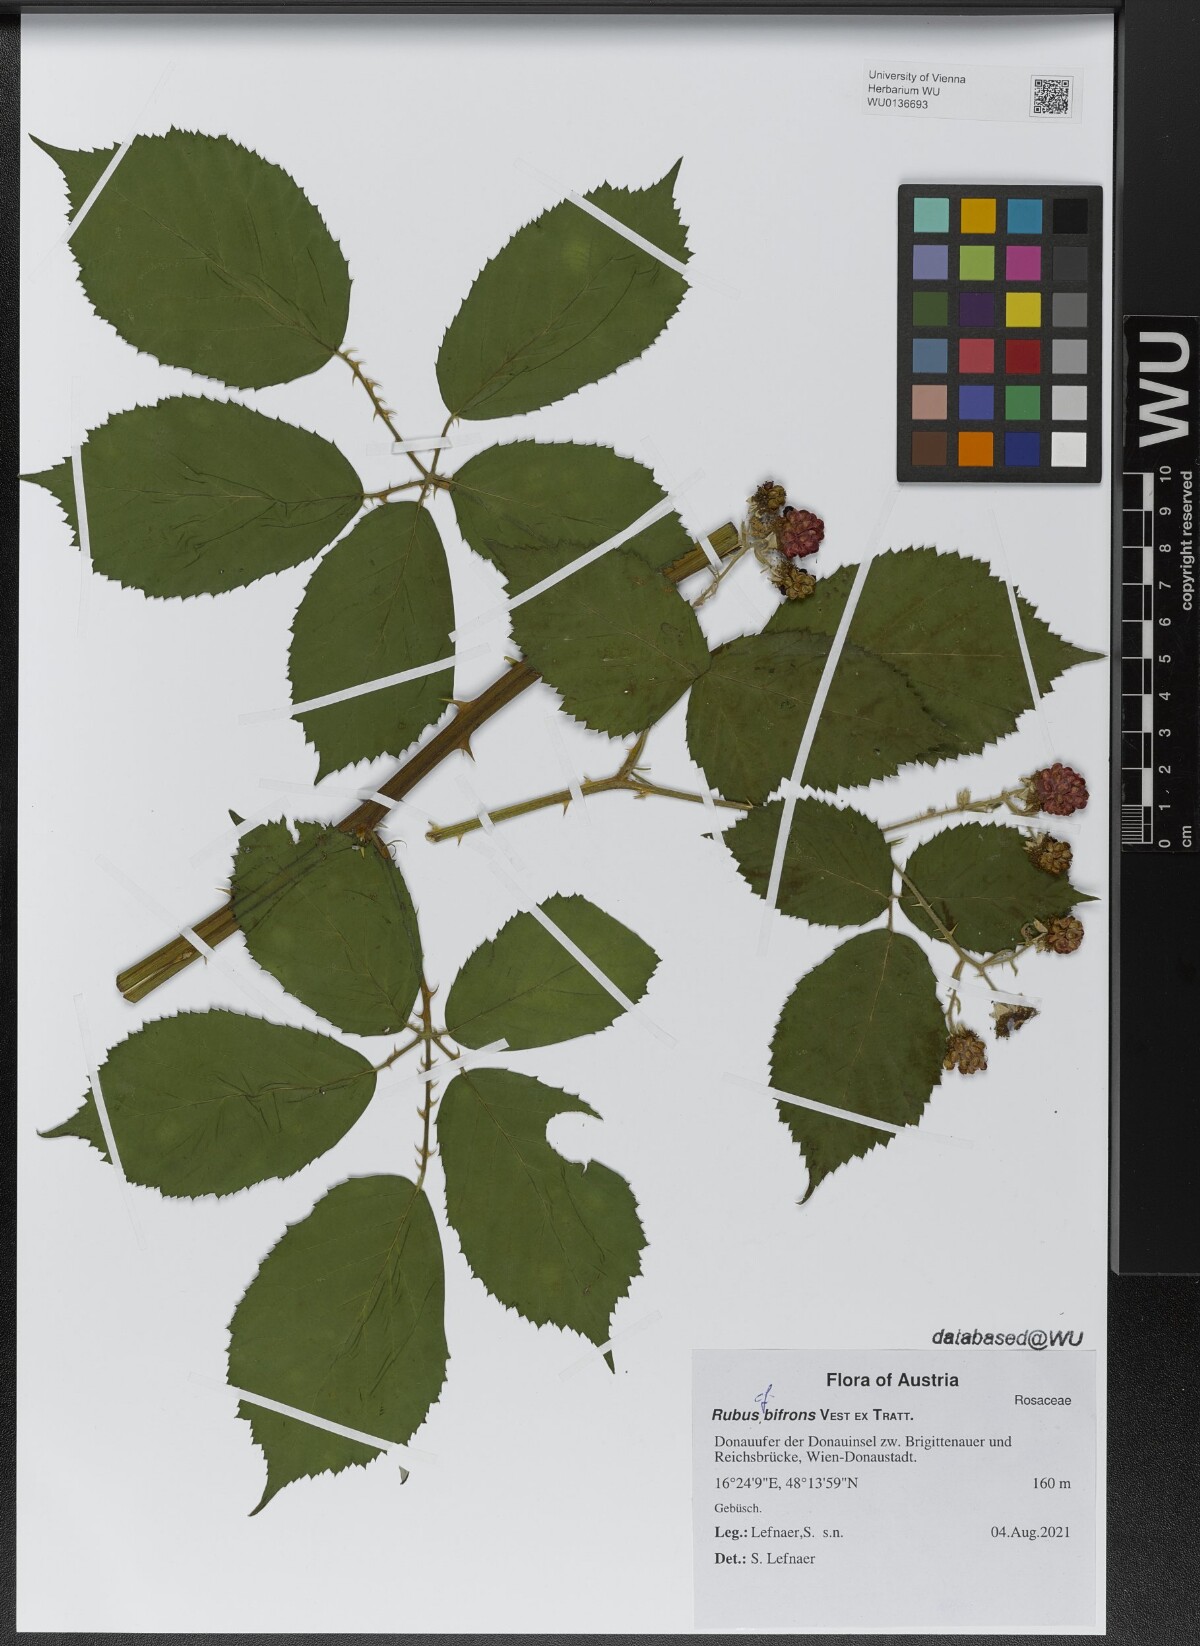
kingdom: Plantae
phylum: Tracheophyta
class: Magnoliopsida
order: Rosales
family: Rosaceae
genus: Rubus
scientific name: Rubus bifrons
